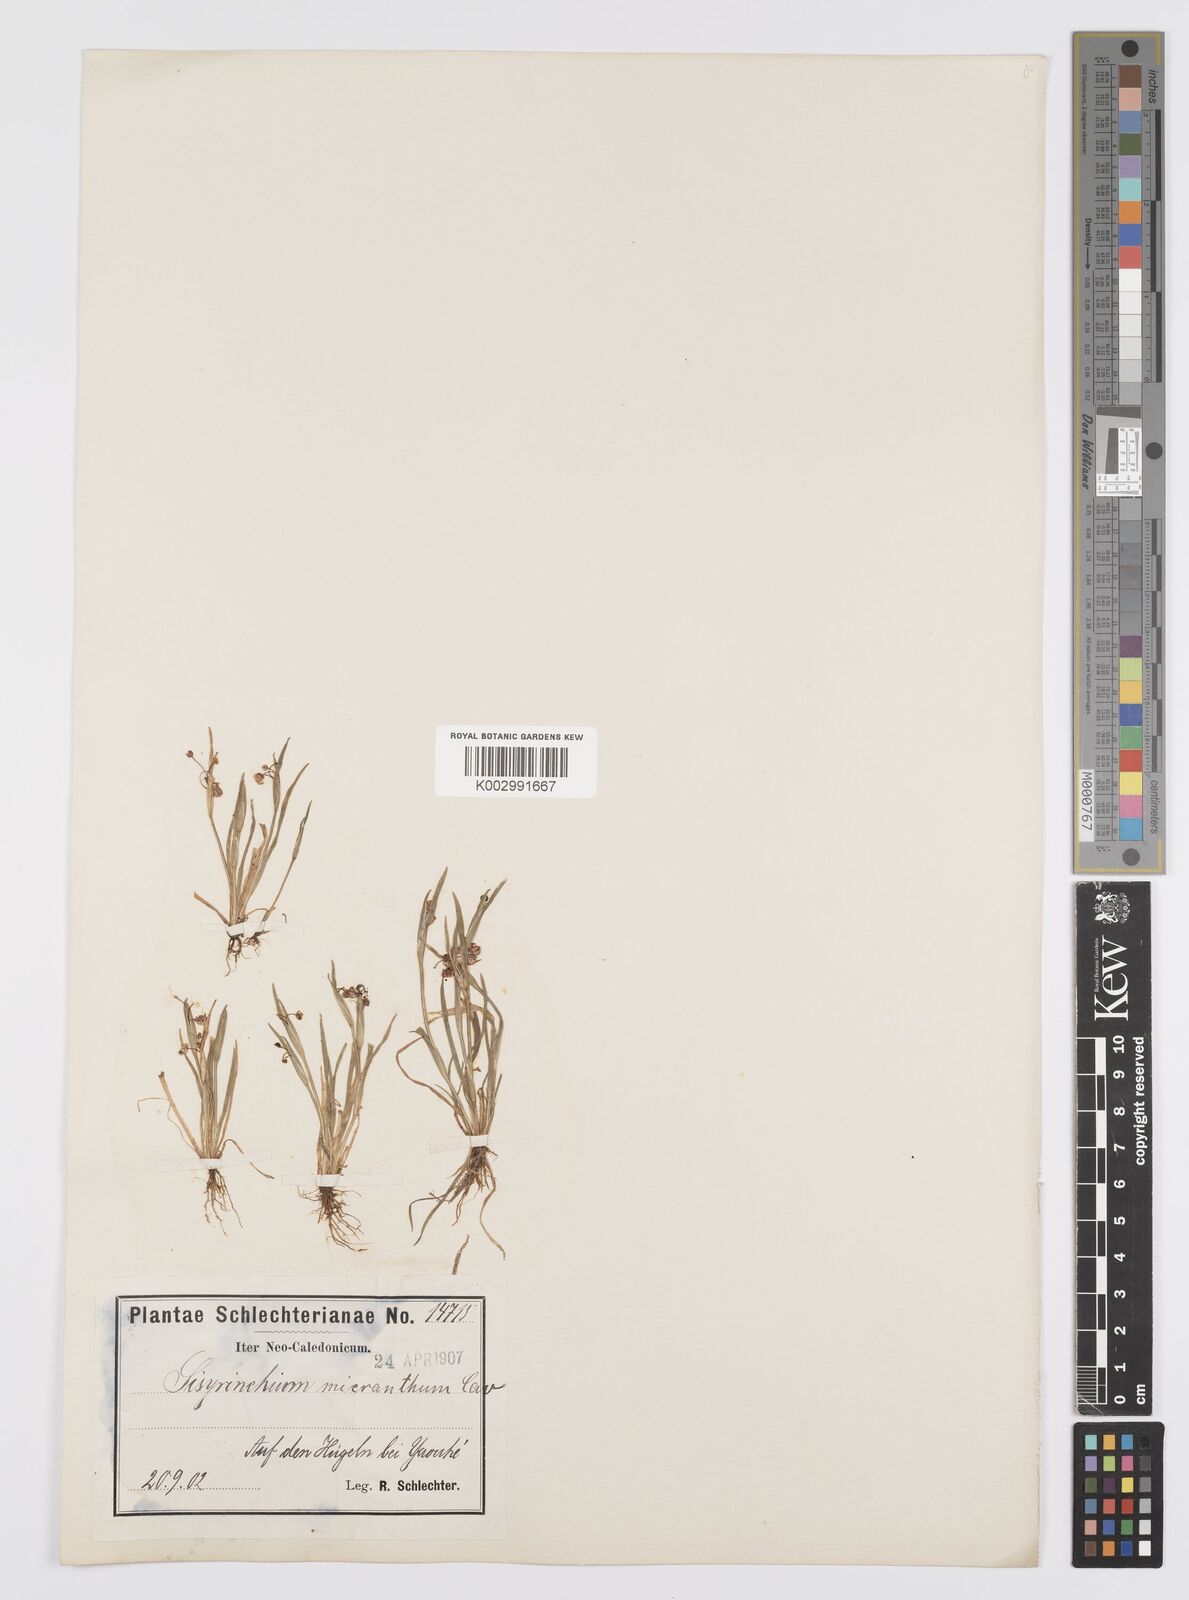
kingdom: Plantae
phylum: Tracheophyta
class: Liliopsida
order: Asparagales
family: Iridaceae
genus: Sisyrinchium
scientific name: Sisyrinchium micranthum
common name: Bermuda pigroot
